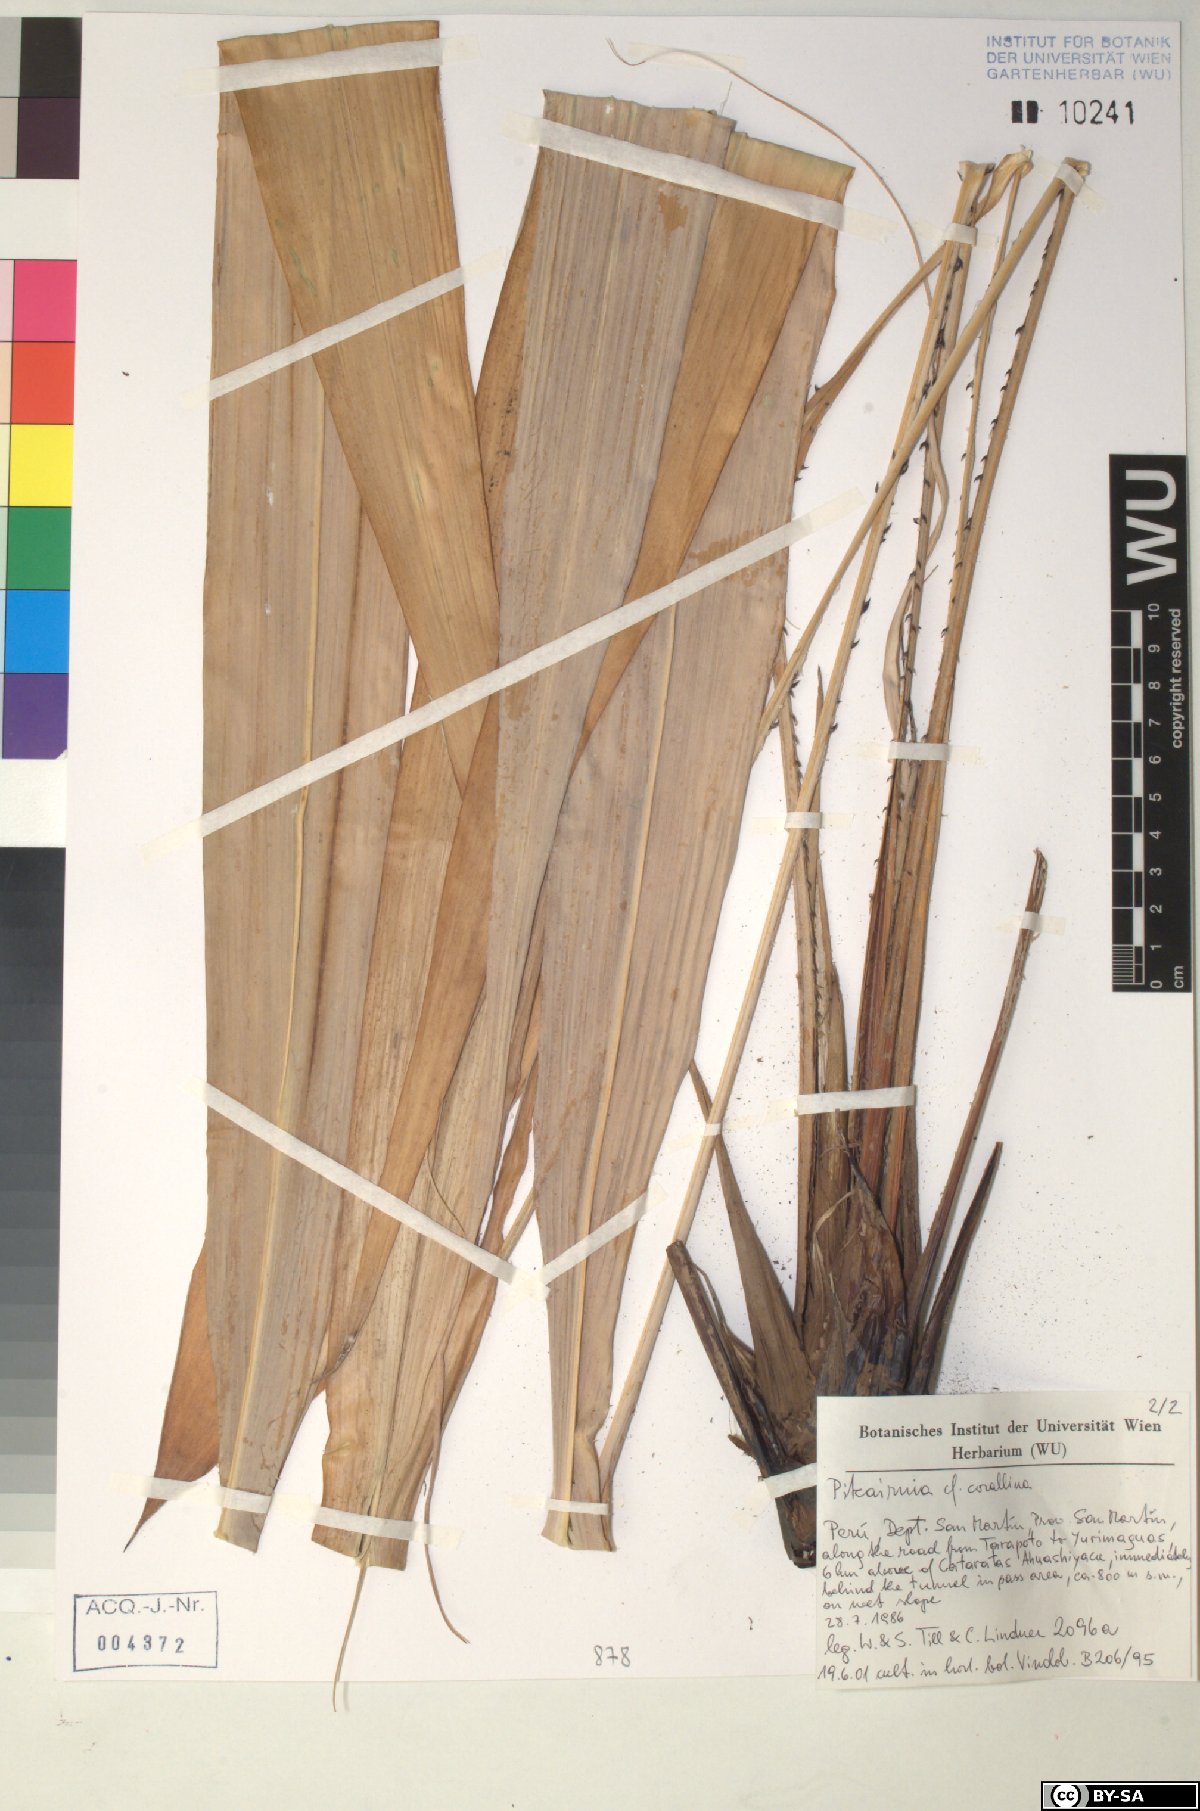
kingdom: Plantae
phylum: Tracheophyta
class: Liliopsida
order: Poales
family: Bromeliaceae
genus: Pitcairnia
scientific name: Pitcairnia corallina
